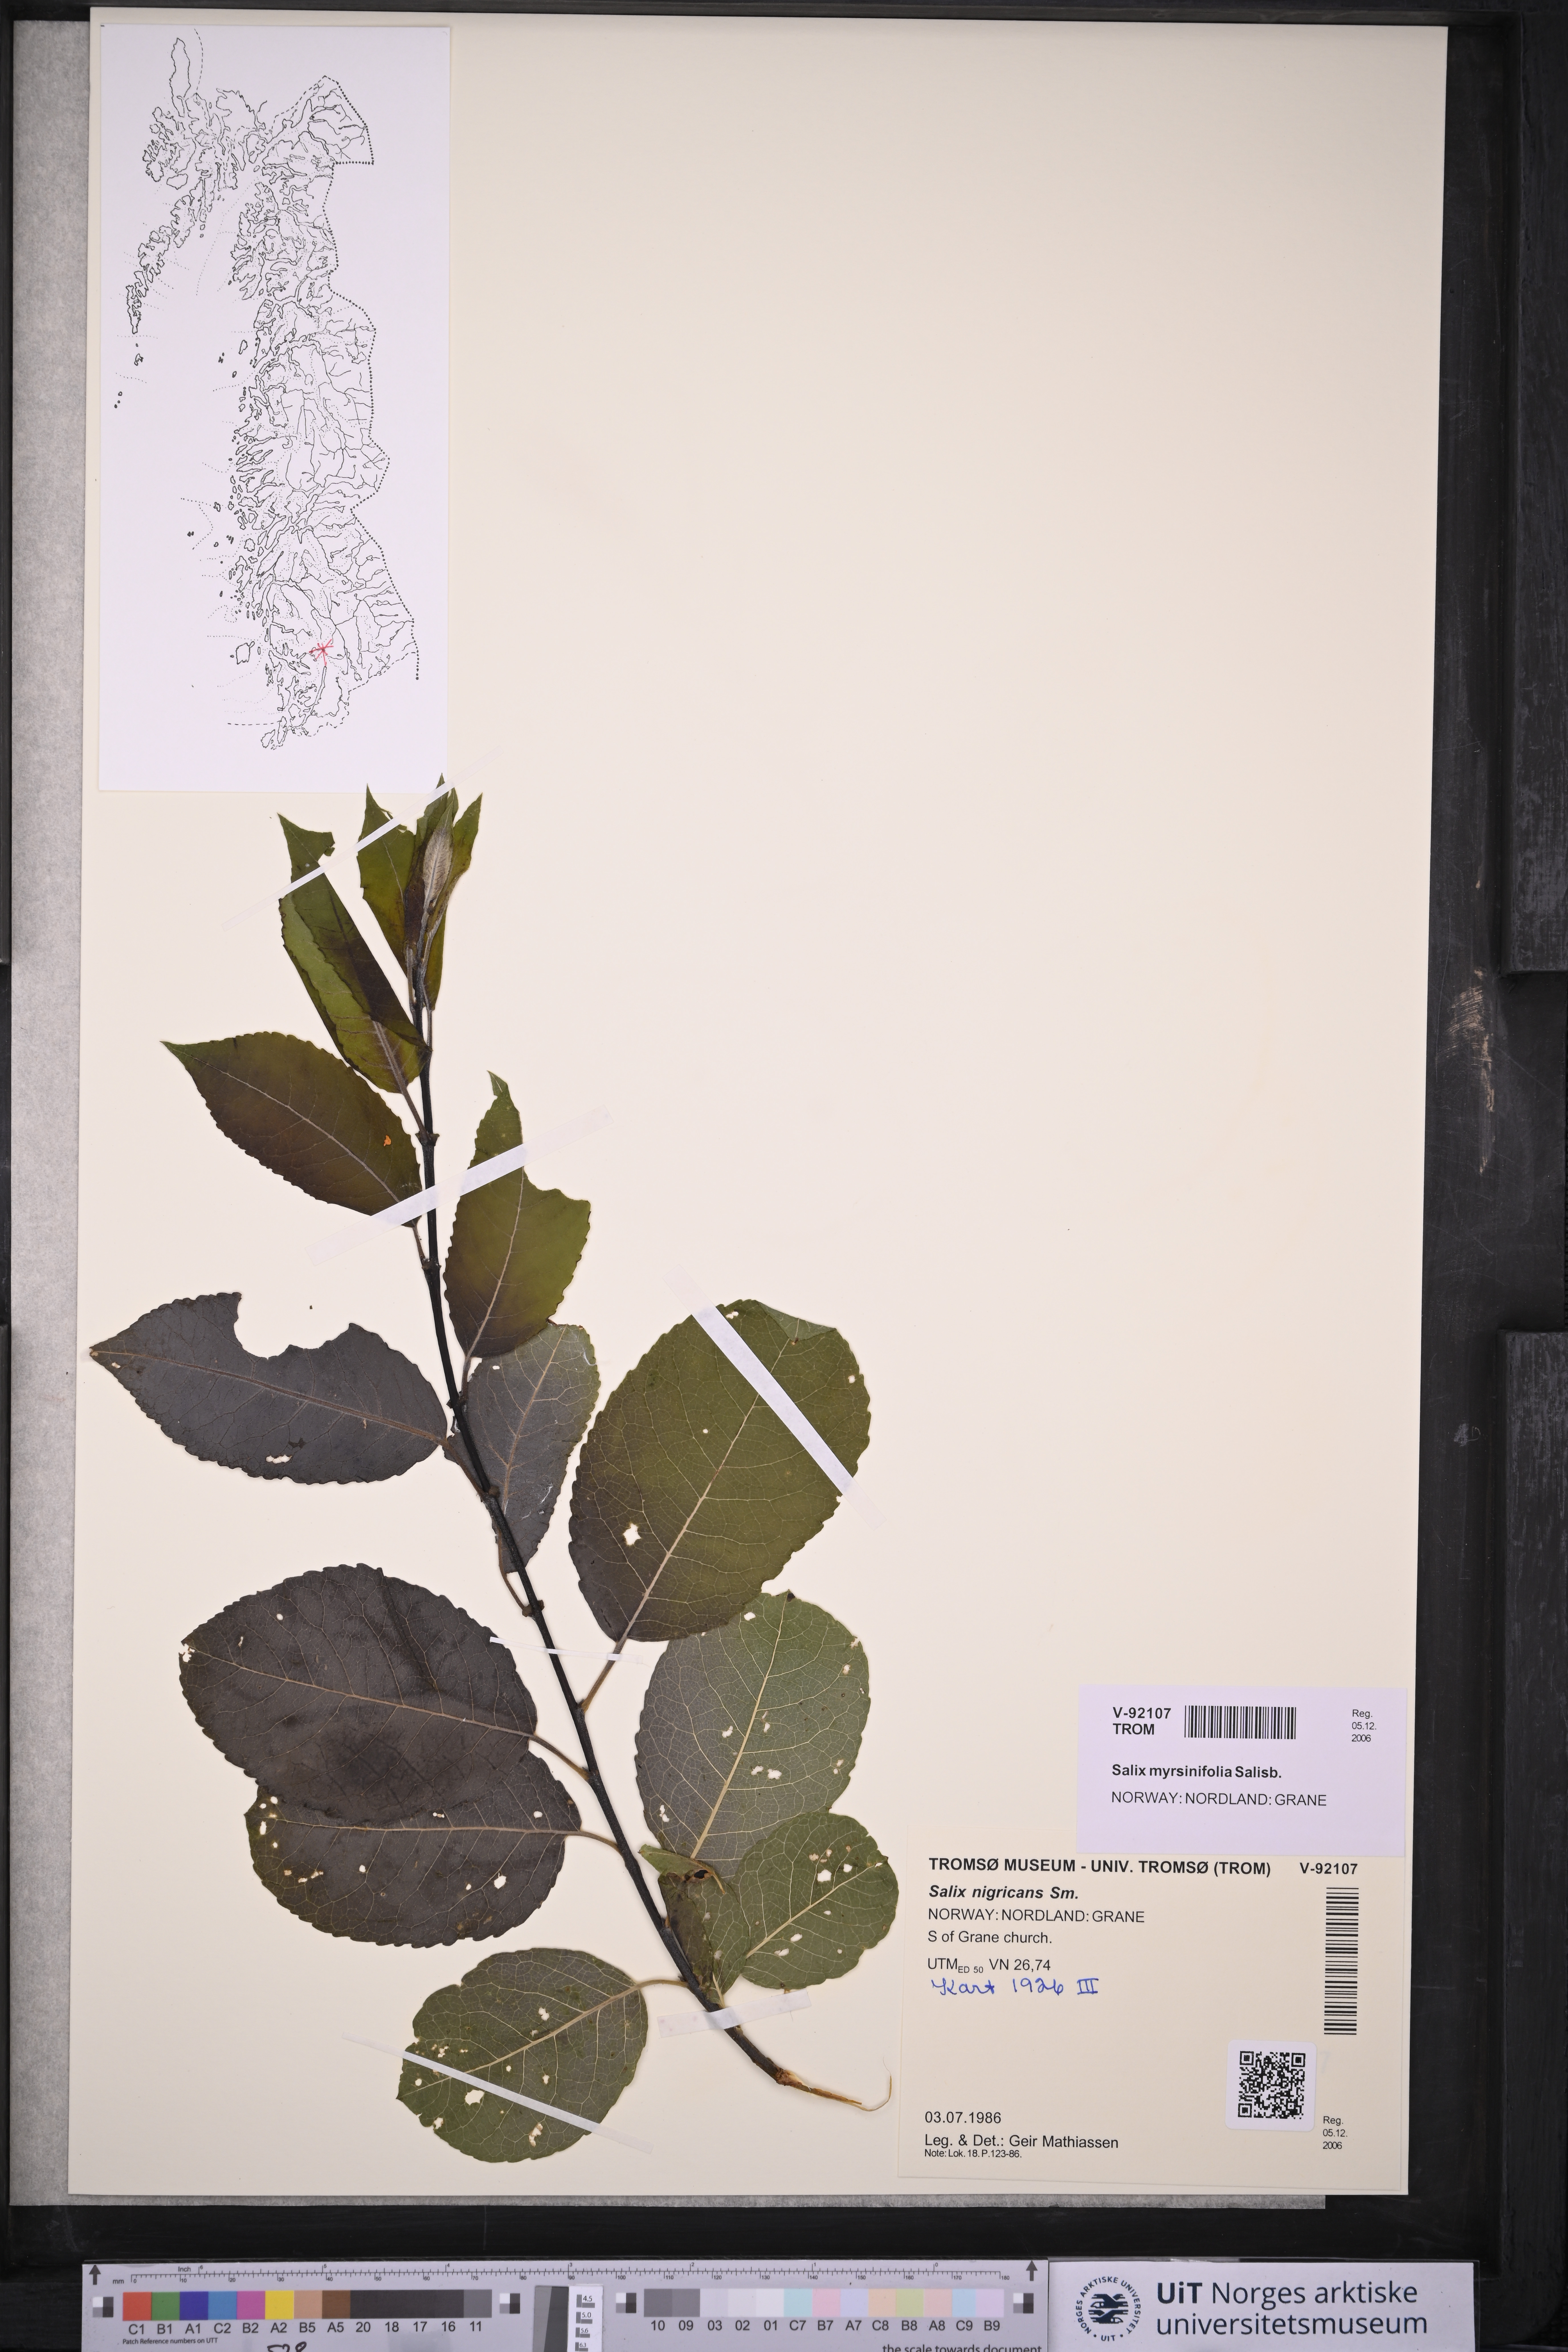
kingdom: Plantae
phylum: Tracheophyta
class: Magnoliopsida
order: Malpighiales
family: Salicaceae
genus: Salix
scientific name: Salix myrsinifolia
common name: Dark-leaved willow
